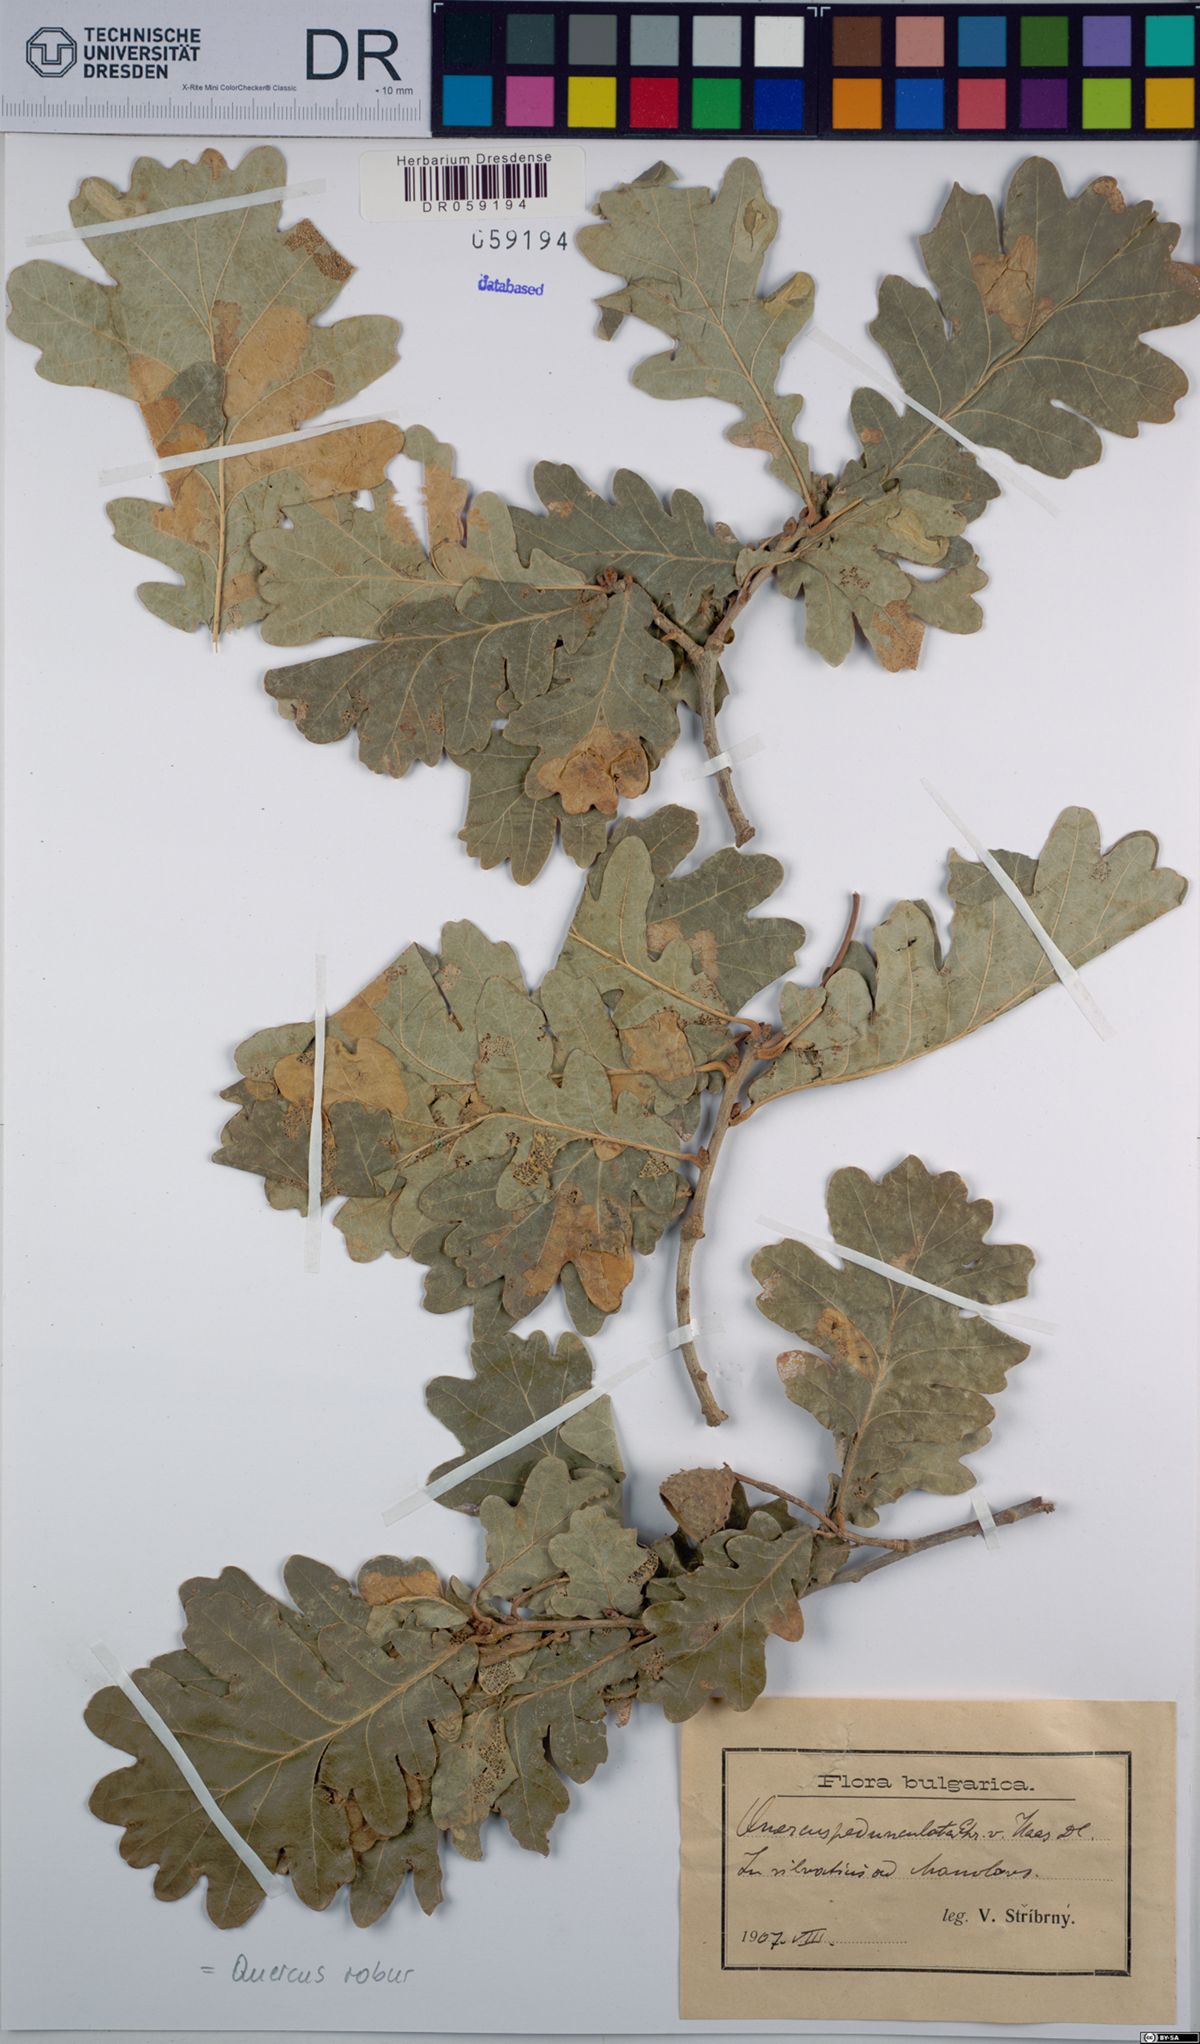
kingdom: Plantae
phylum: Tracheophyta
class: Magnoliopsida
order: Fagales
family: Fagaceae
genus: Quercus
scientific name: Quercus robur
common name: Pedunculate oak
